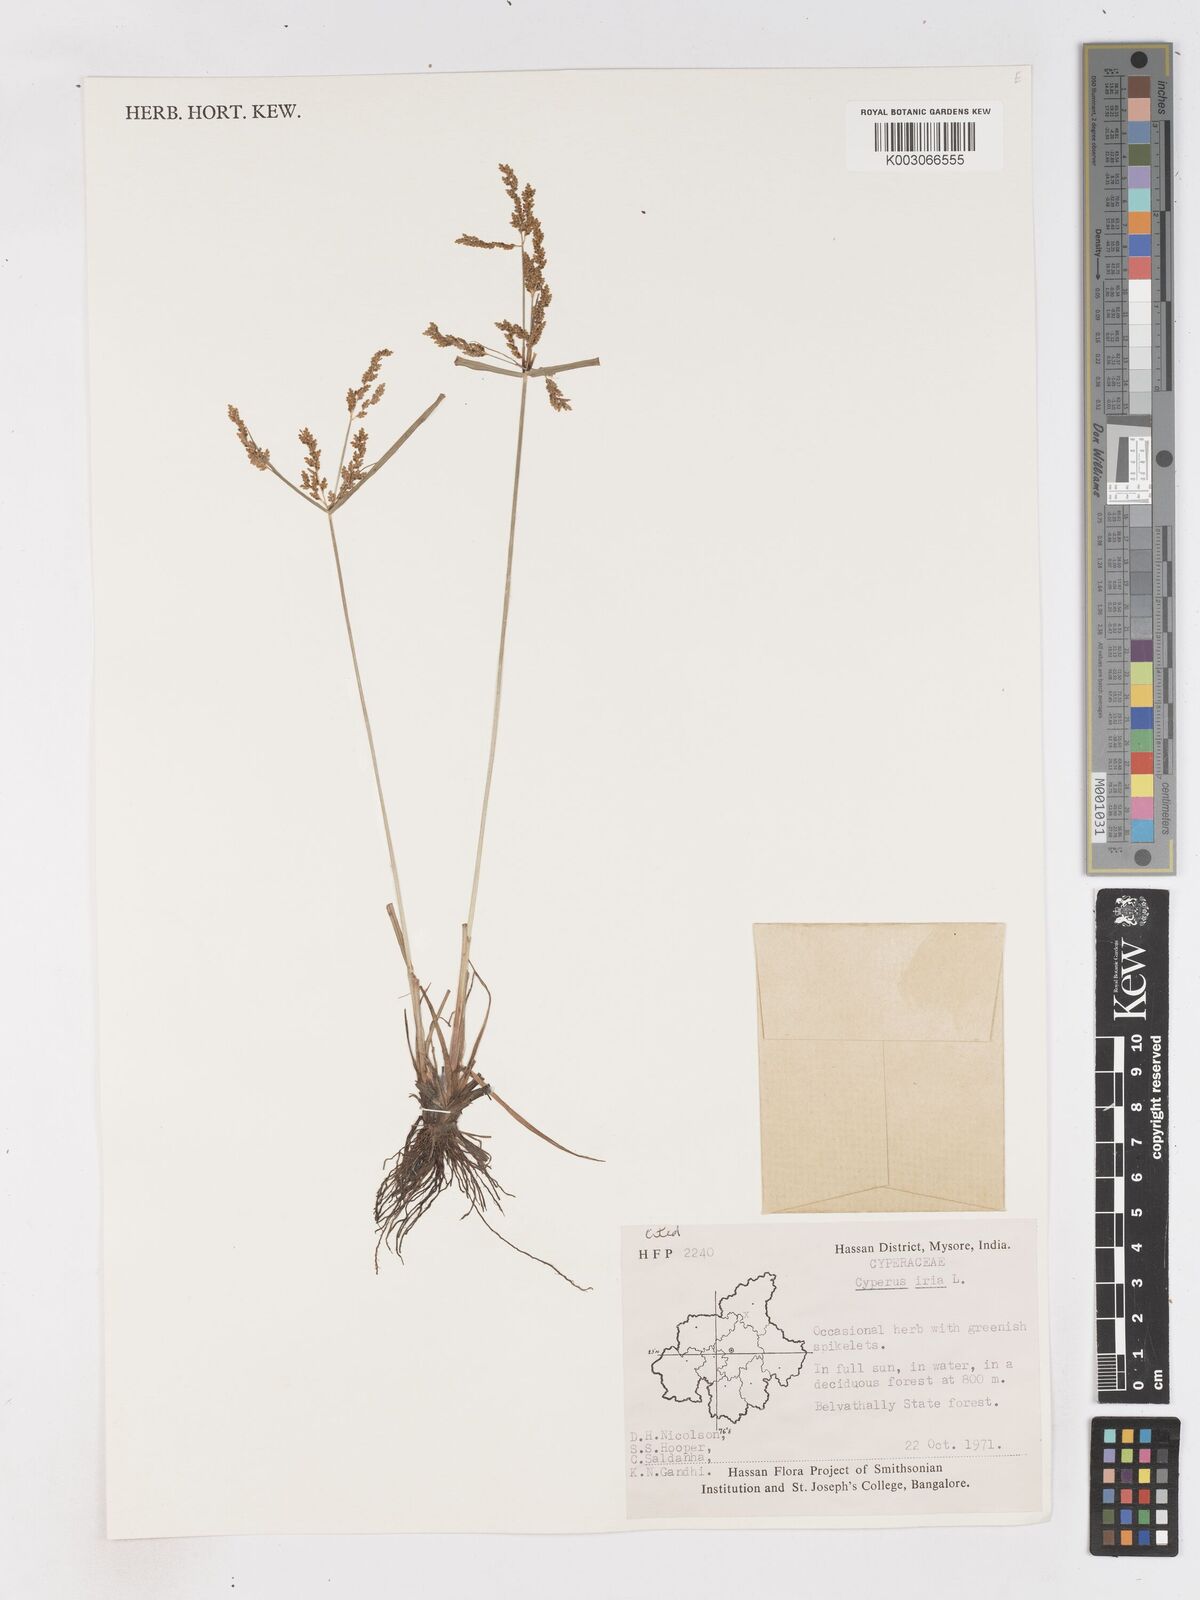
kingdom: Plantae
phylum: Tracheophyta
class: Liliopsida
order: Poales
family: Cyperaceae
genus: Cyperus
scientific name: Cyperus iria
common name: Ricefield flatsedge
